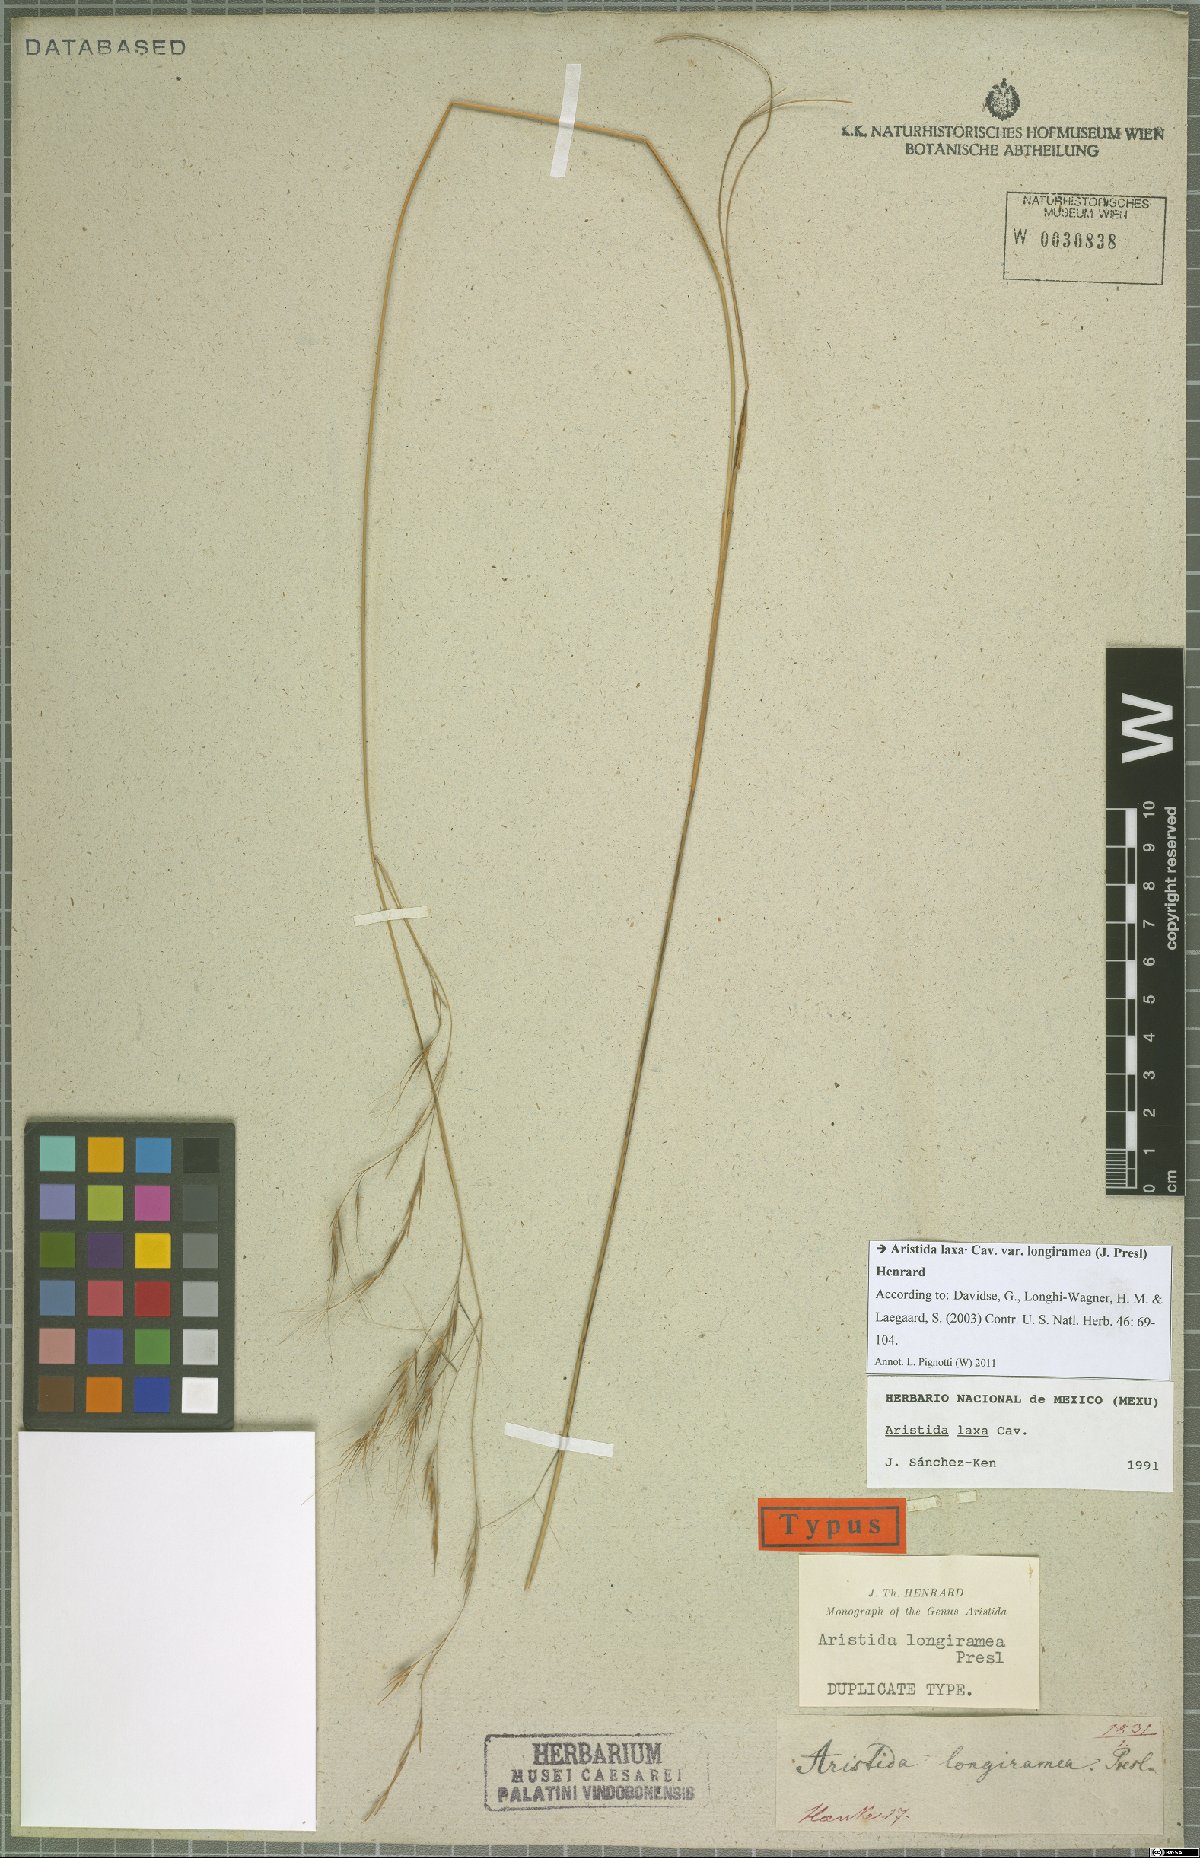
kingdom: Plantae
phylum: Tracheophyta
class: Liliopsida
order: Poales
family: Poaceae
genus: Aristida
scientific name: Aristida laxa
